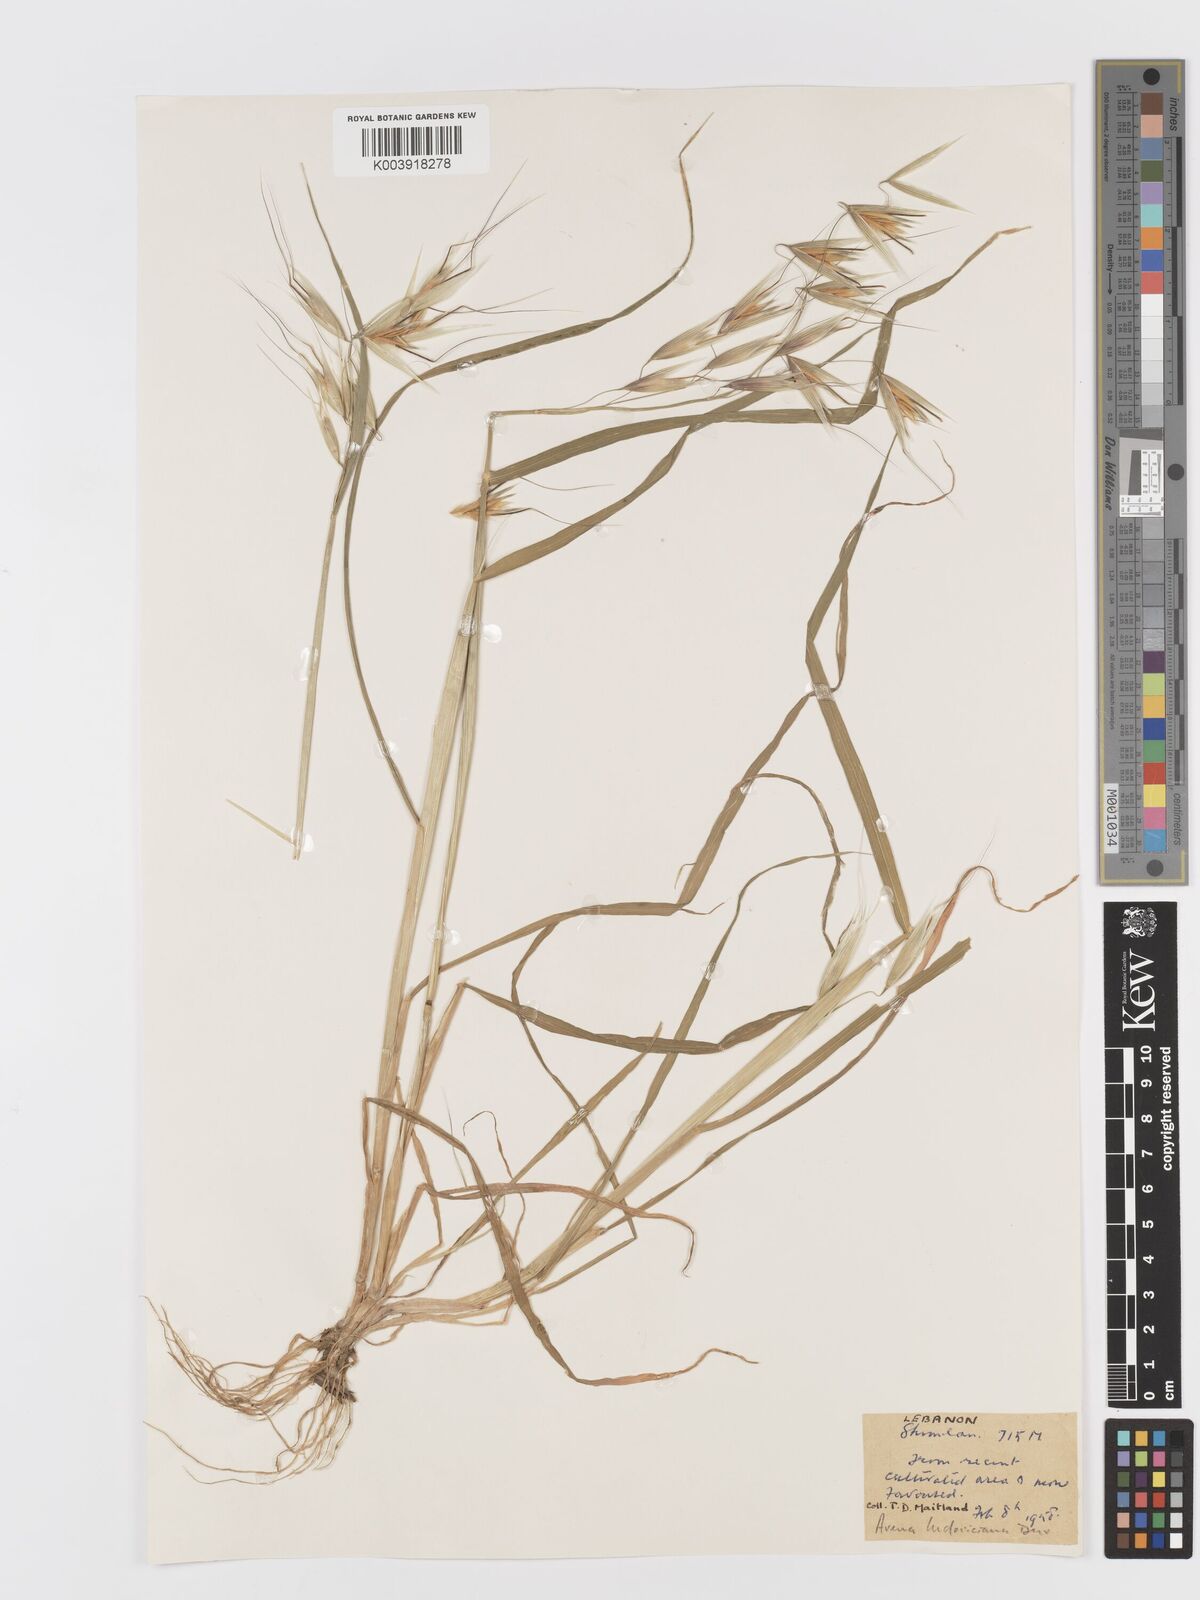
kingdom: Plantae
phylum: Tracheophyta
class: Liliopsida
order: Poales
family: Poaceae
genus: Avena
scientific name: Avena sterilis
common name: Animated oat
